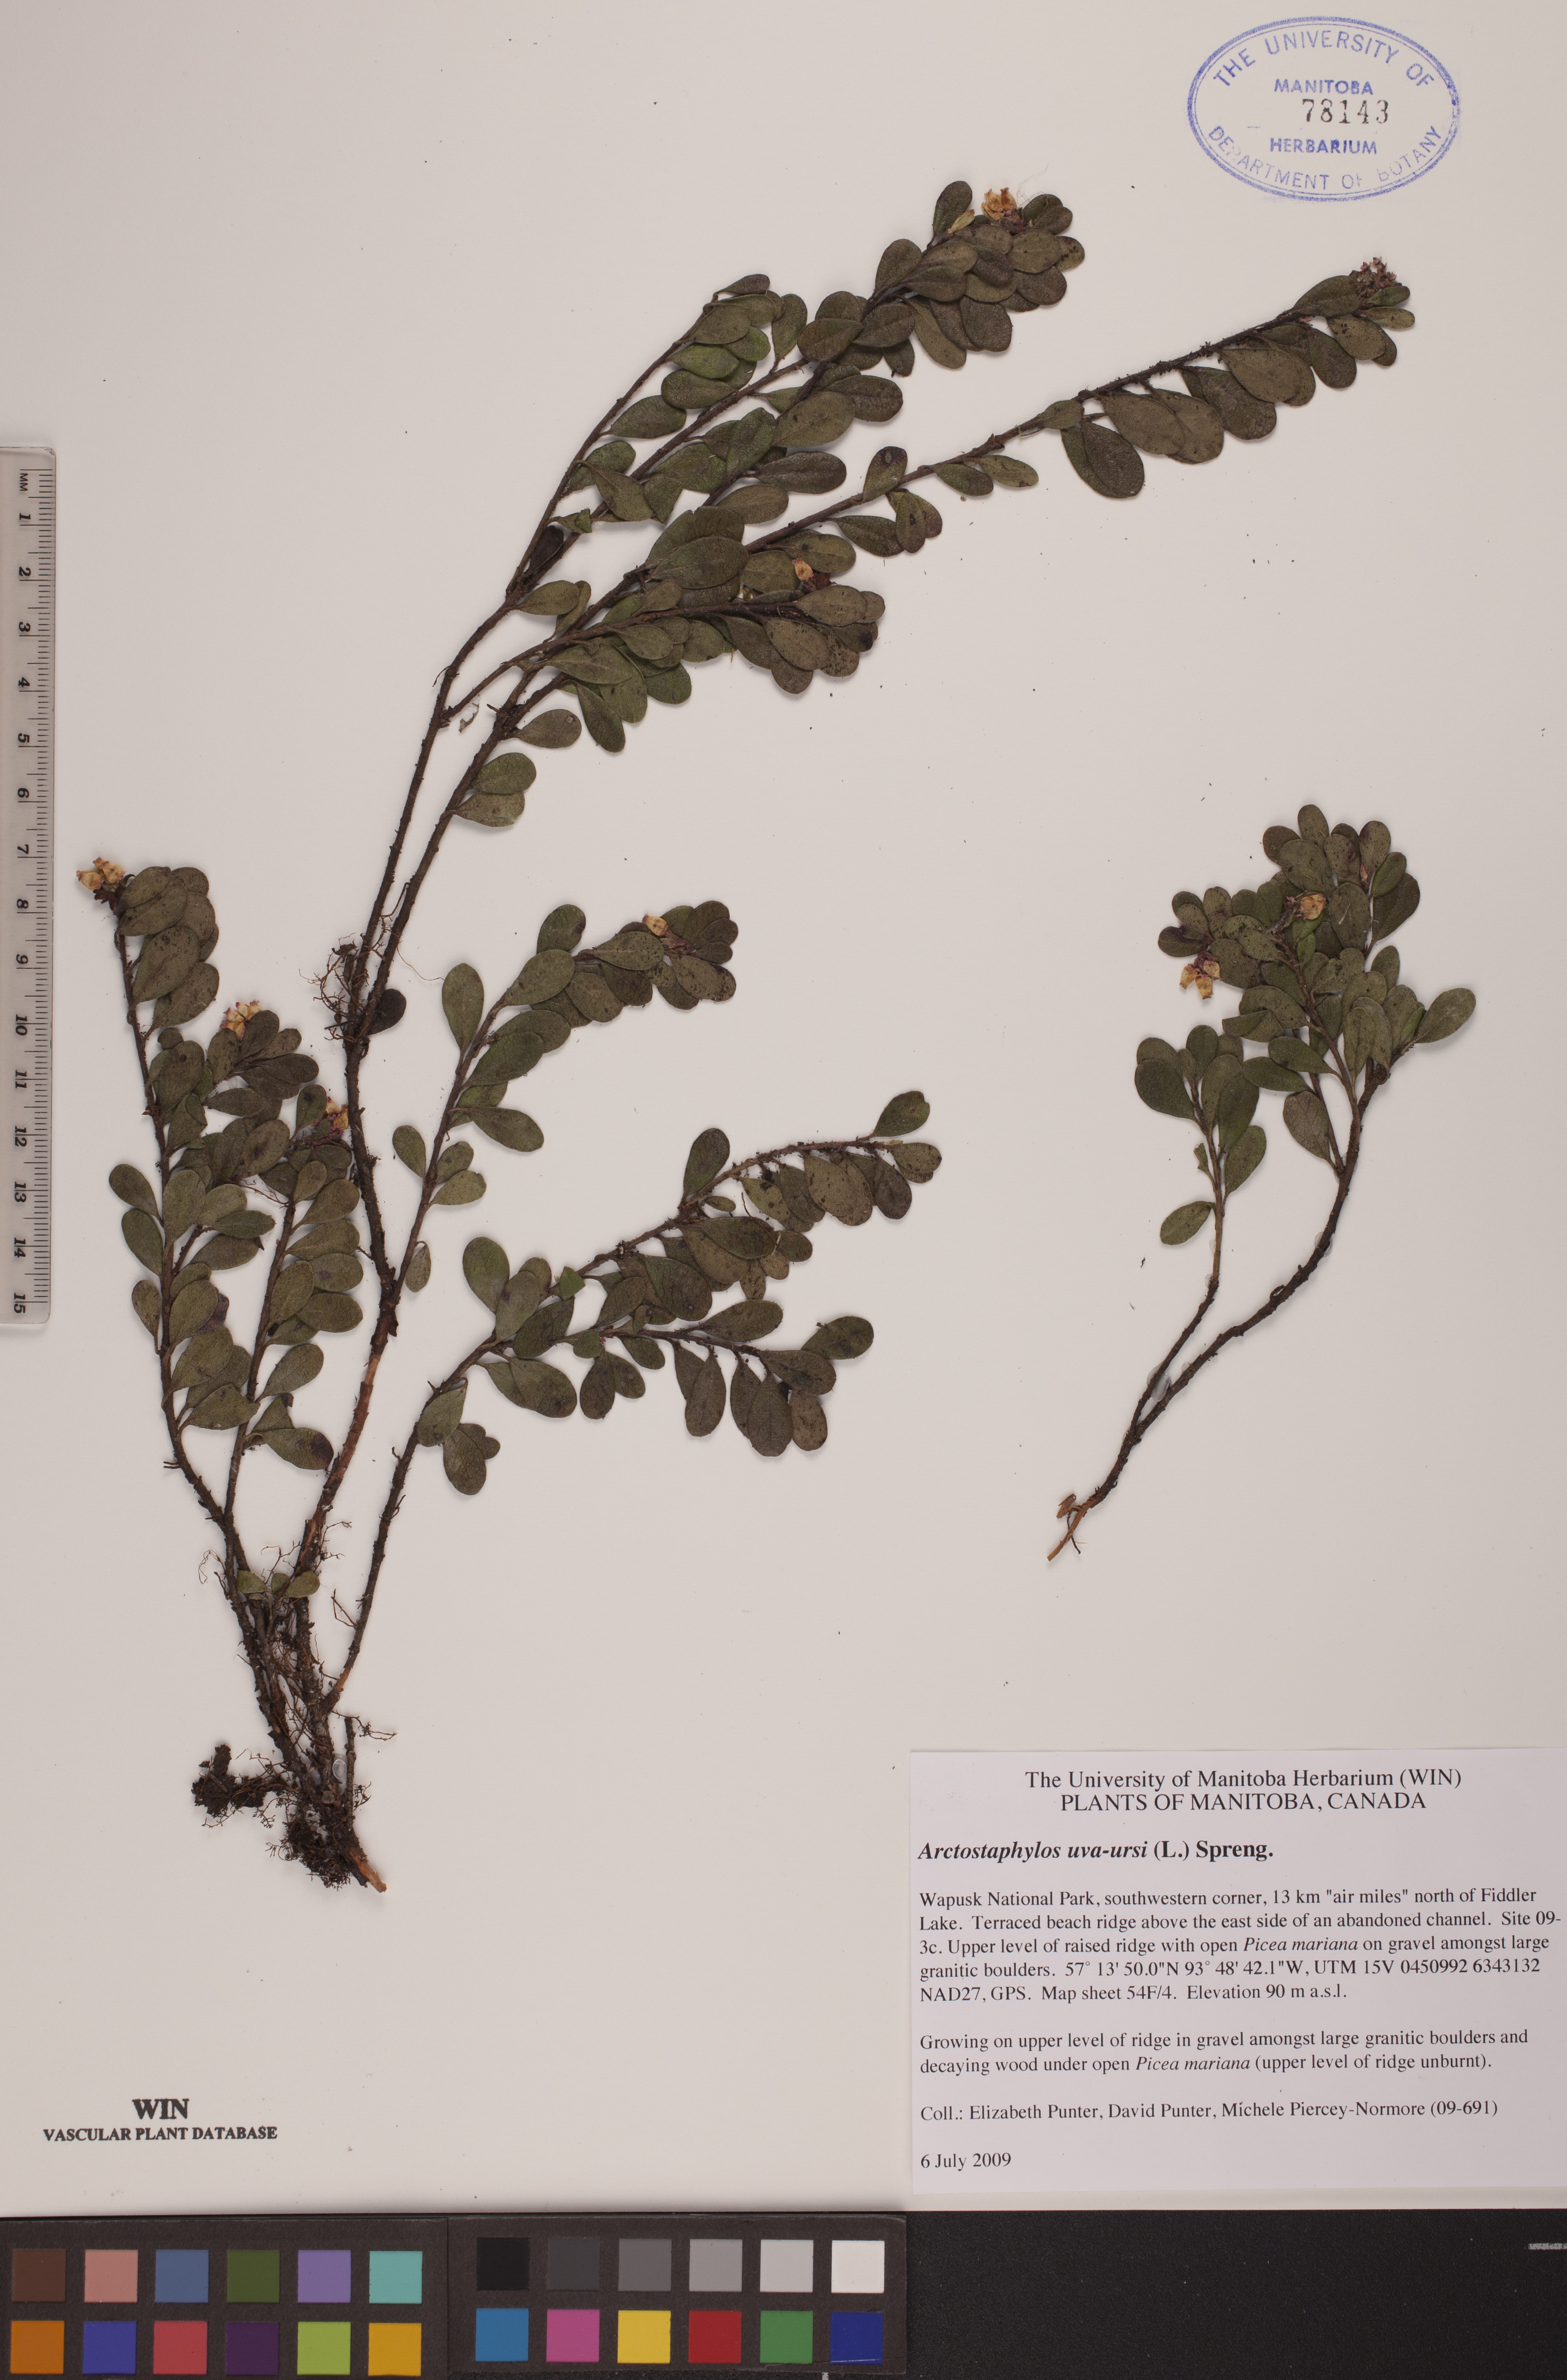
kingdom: Plantae
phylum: Tracheophyta
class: Magnoliopsida
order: Ericales
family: Ericaceae
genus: Arctostaphylos
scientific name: Arctostaphylos uva-ursi
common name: Bearberry
